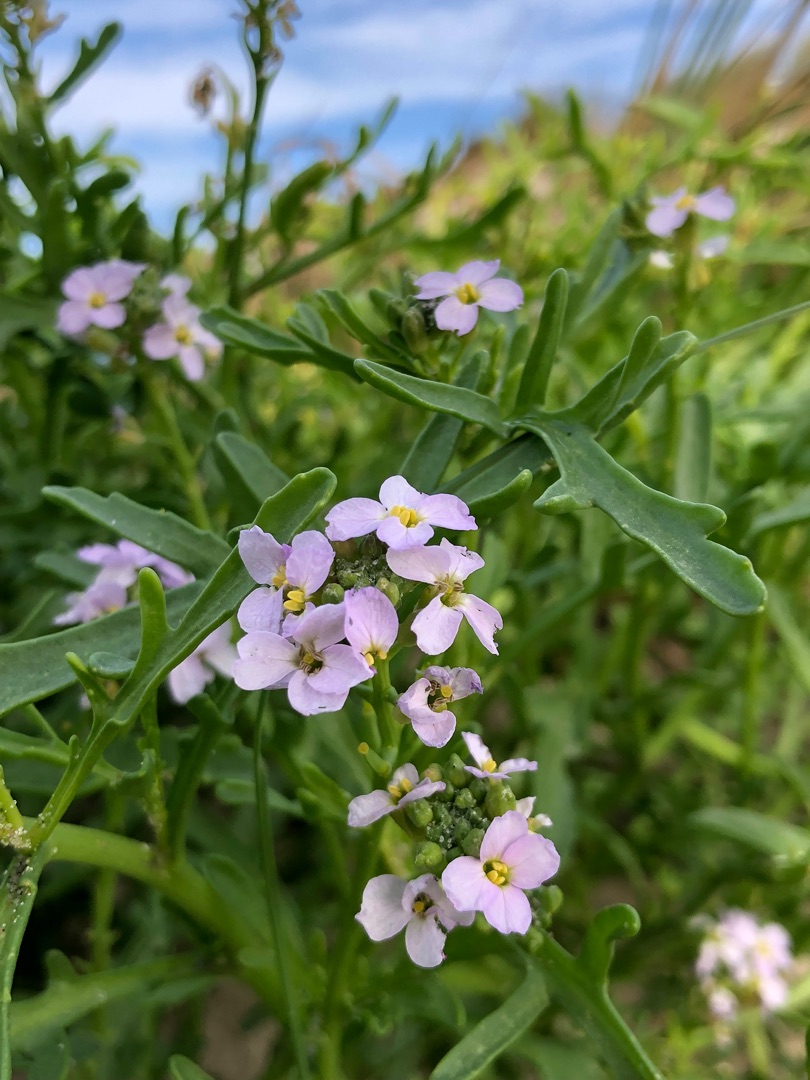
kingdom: Plantae
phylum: Tracheophyta
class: Magnoliopsida
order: Brassicales
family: Brassicaceae
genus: Cakile
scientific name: Cakile maritima
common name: Strandsennep
